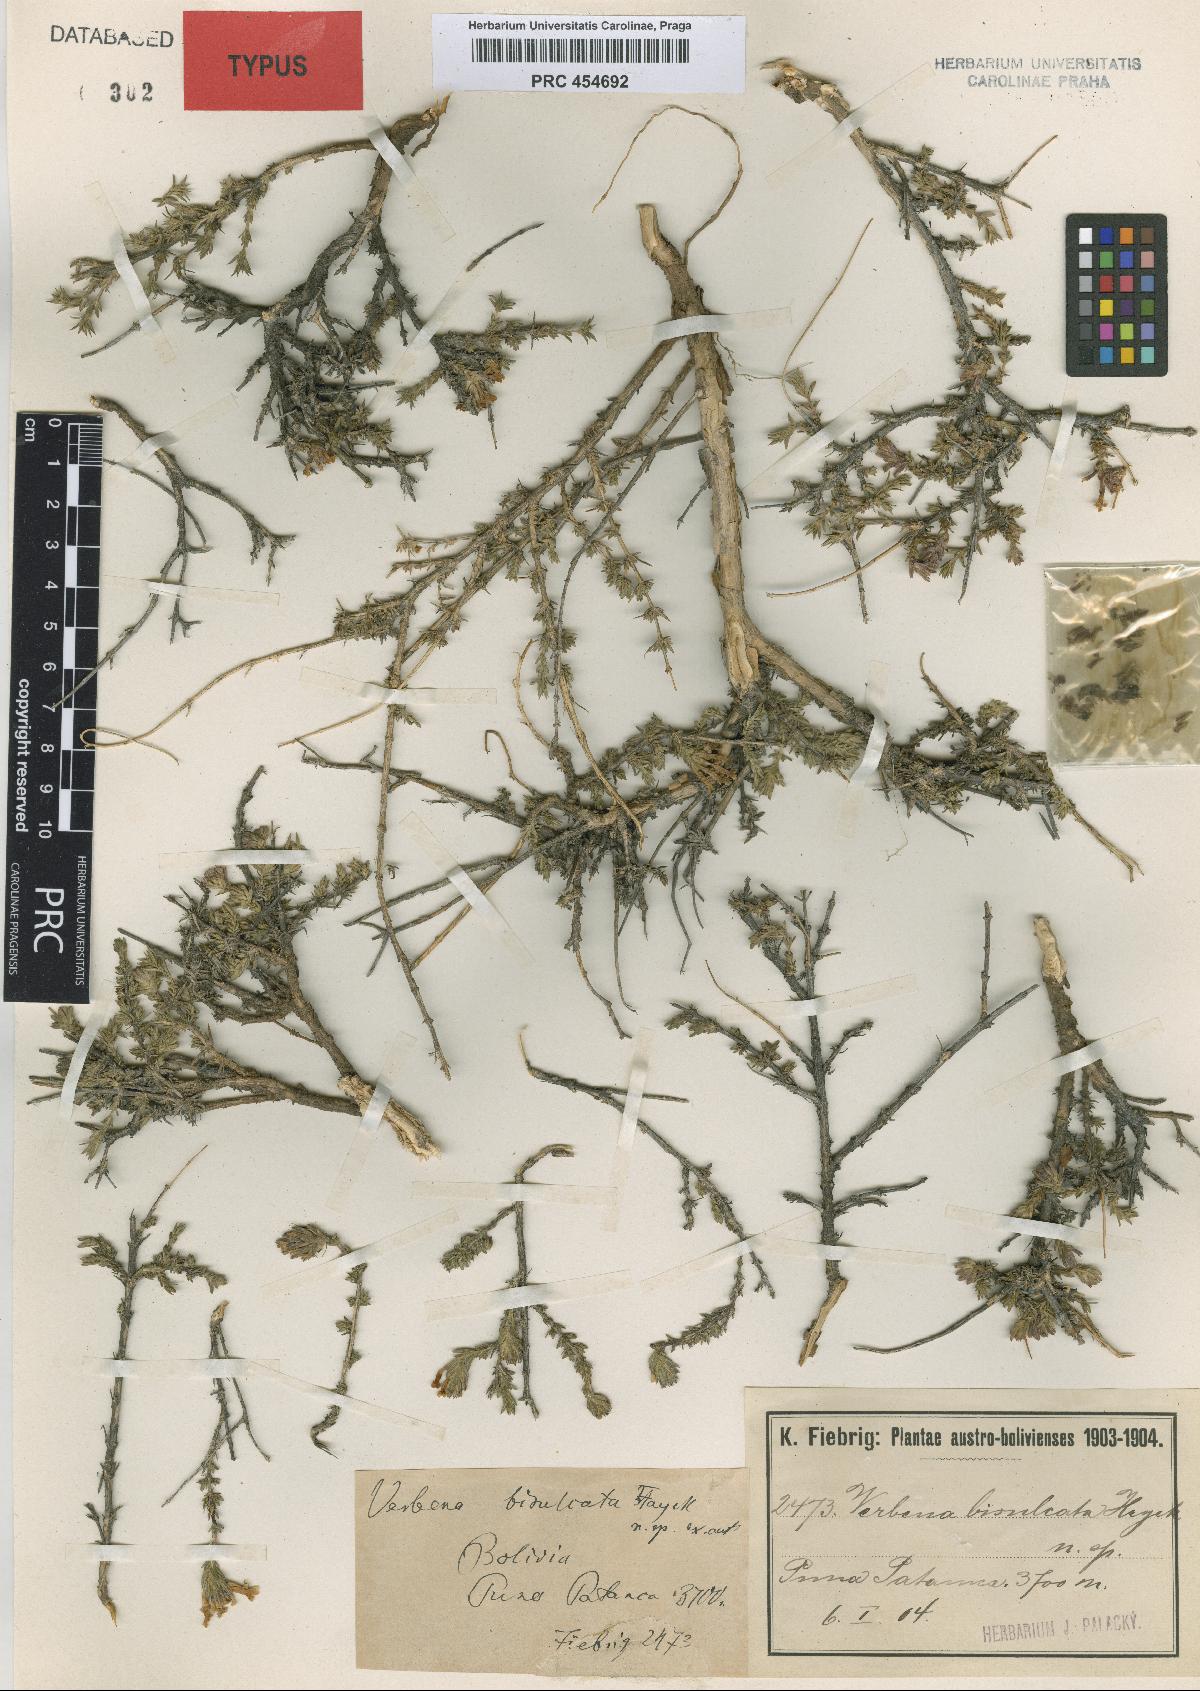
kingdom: Plantae
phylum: Tracheophyta
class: Magnoliopsida
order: Lamiales
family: Verbenaceae
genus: Junellia
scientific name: Junellia bisulcata
